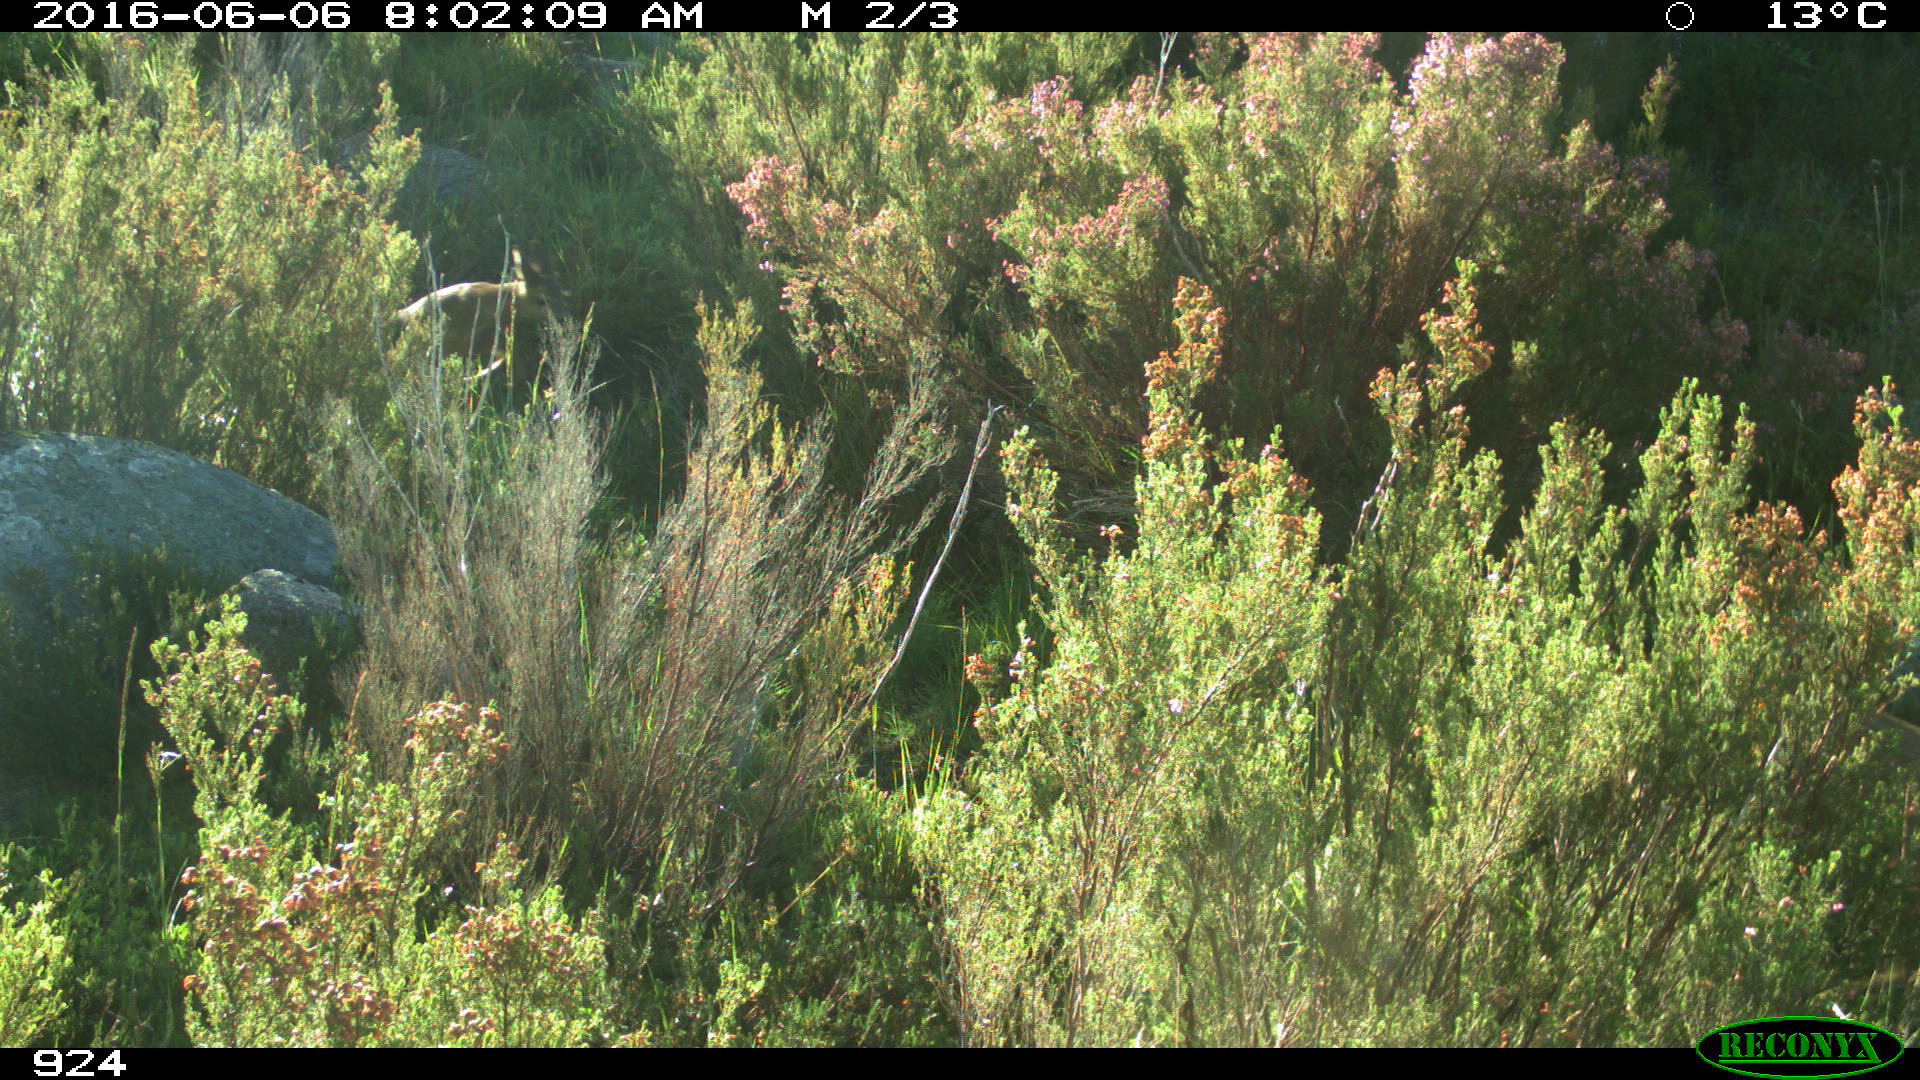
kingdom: Animalia
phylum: Chordata
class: Mammalia
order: Artiodactyla
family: Cervidae
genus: Capreolus
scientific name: Capreolus capreolus
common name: Western roe deer
